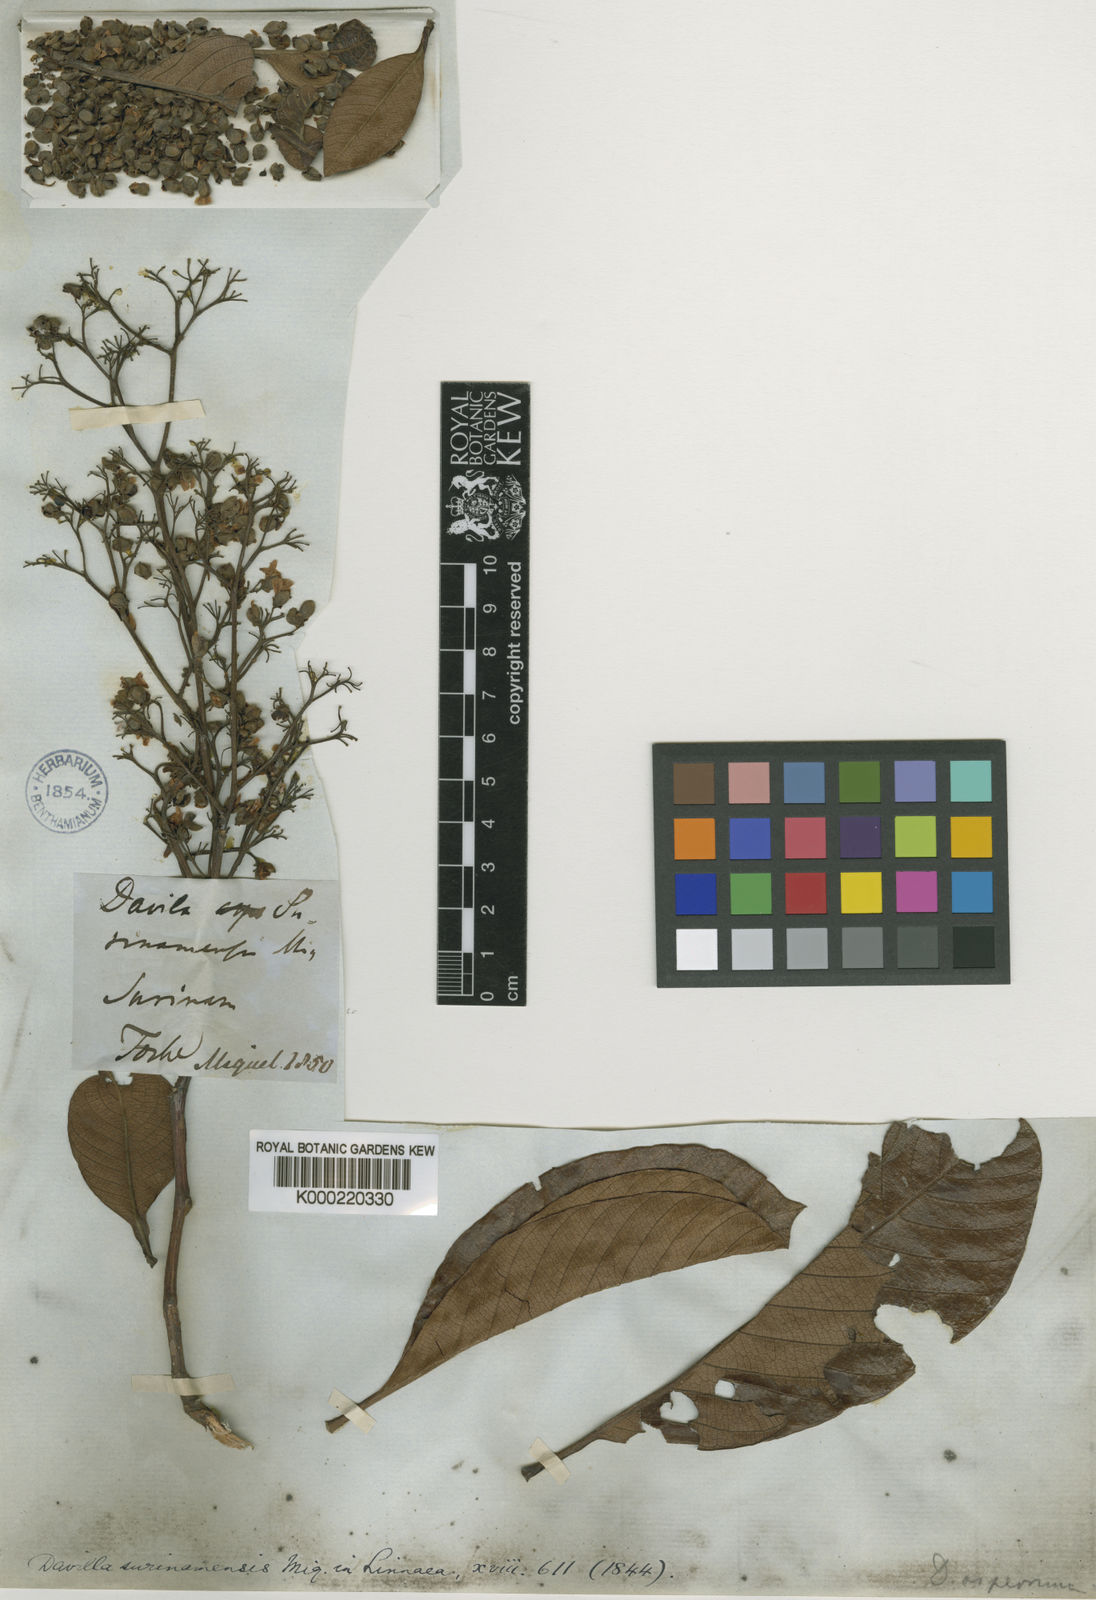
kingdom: Plantae
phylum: Tracheophyta
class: Magnoliopsida
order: Dilleniales
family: Dilleniaceae
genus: Davilla
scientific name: Davilla kunthii
